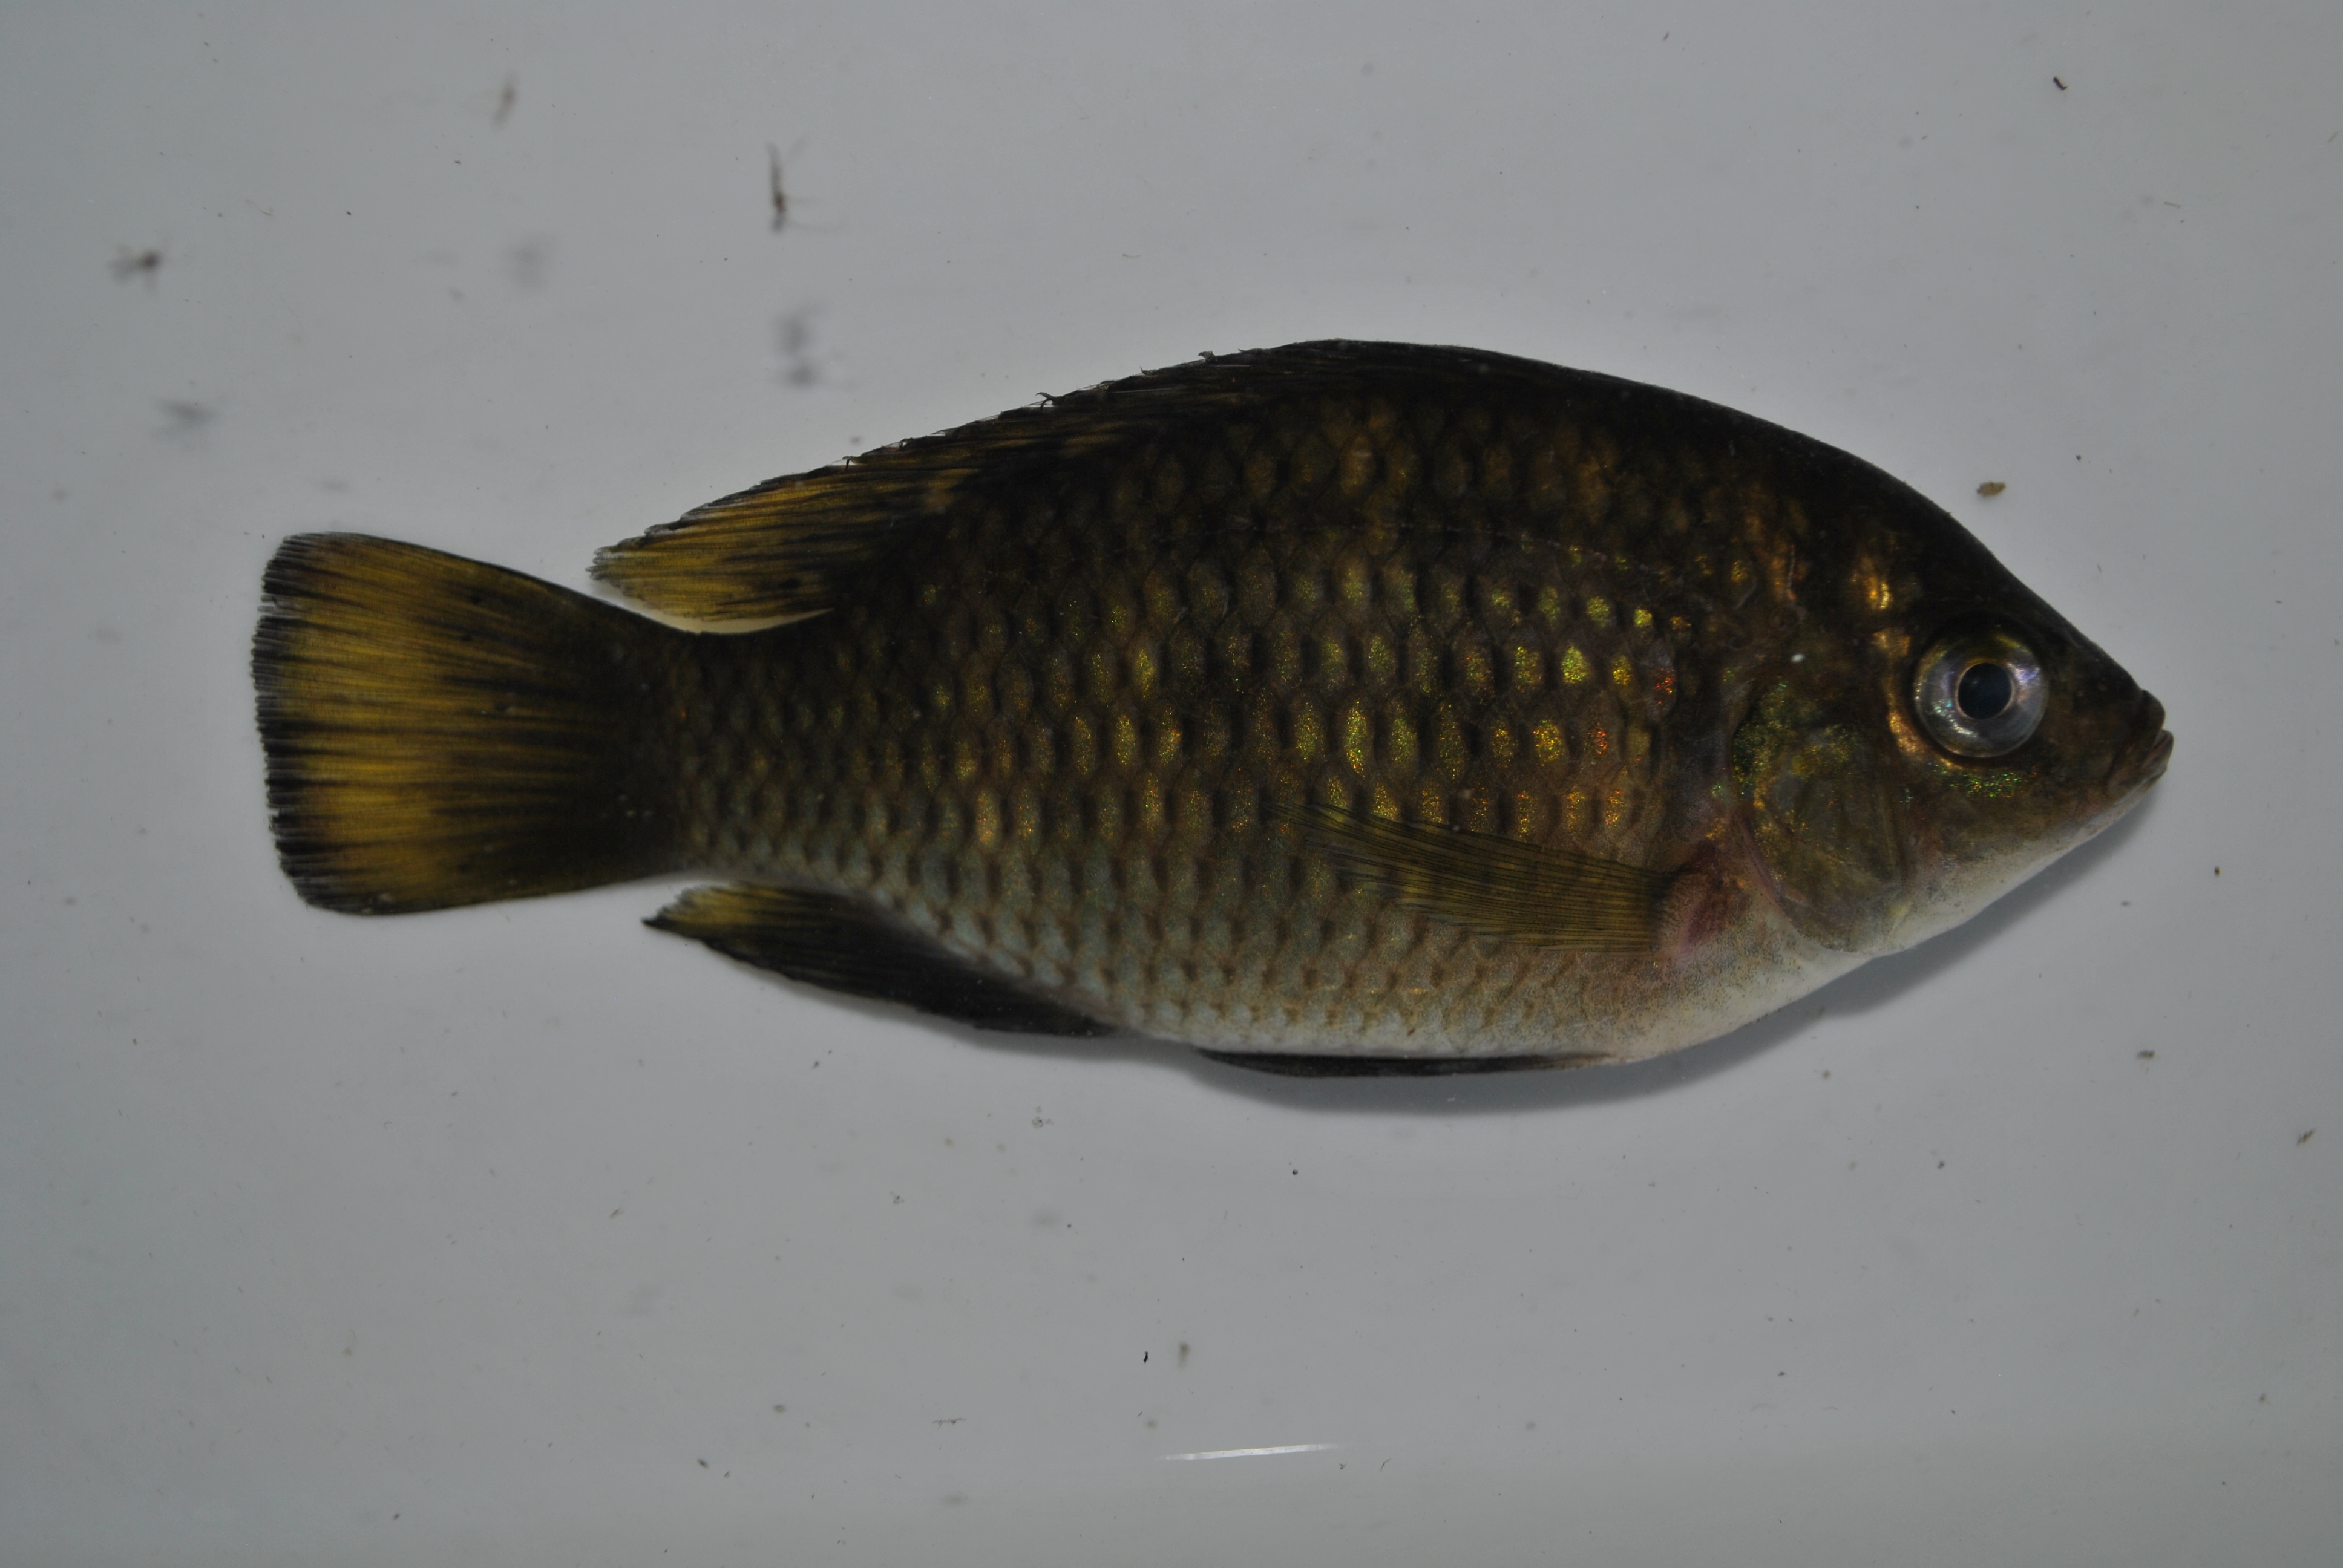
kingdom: Animalia
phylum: Chordata
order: Perciformes
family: Cichlidae
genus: Tilapia
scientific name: Tilapia sparrmanii
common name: Banded tilapia
